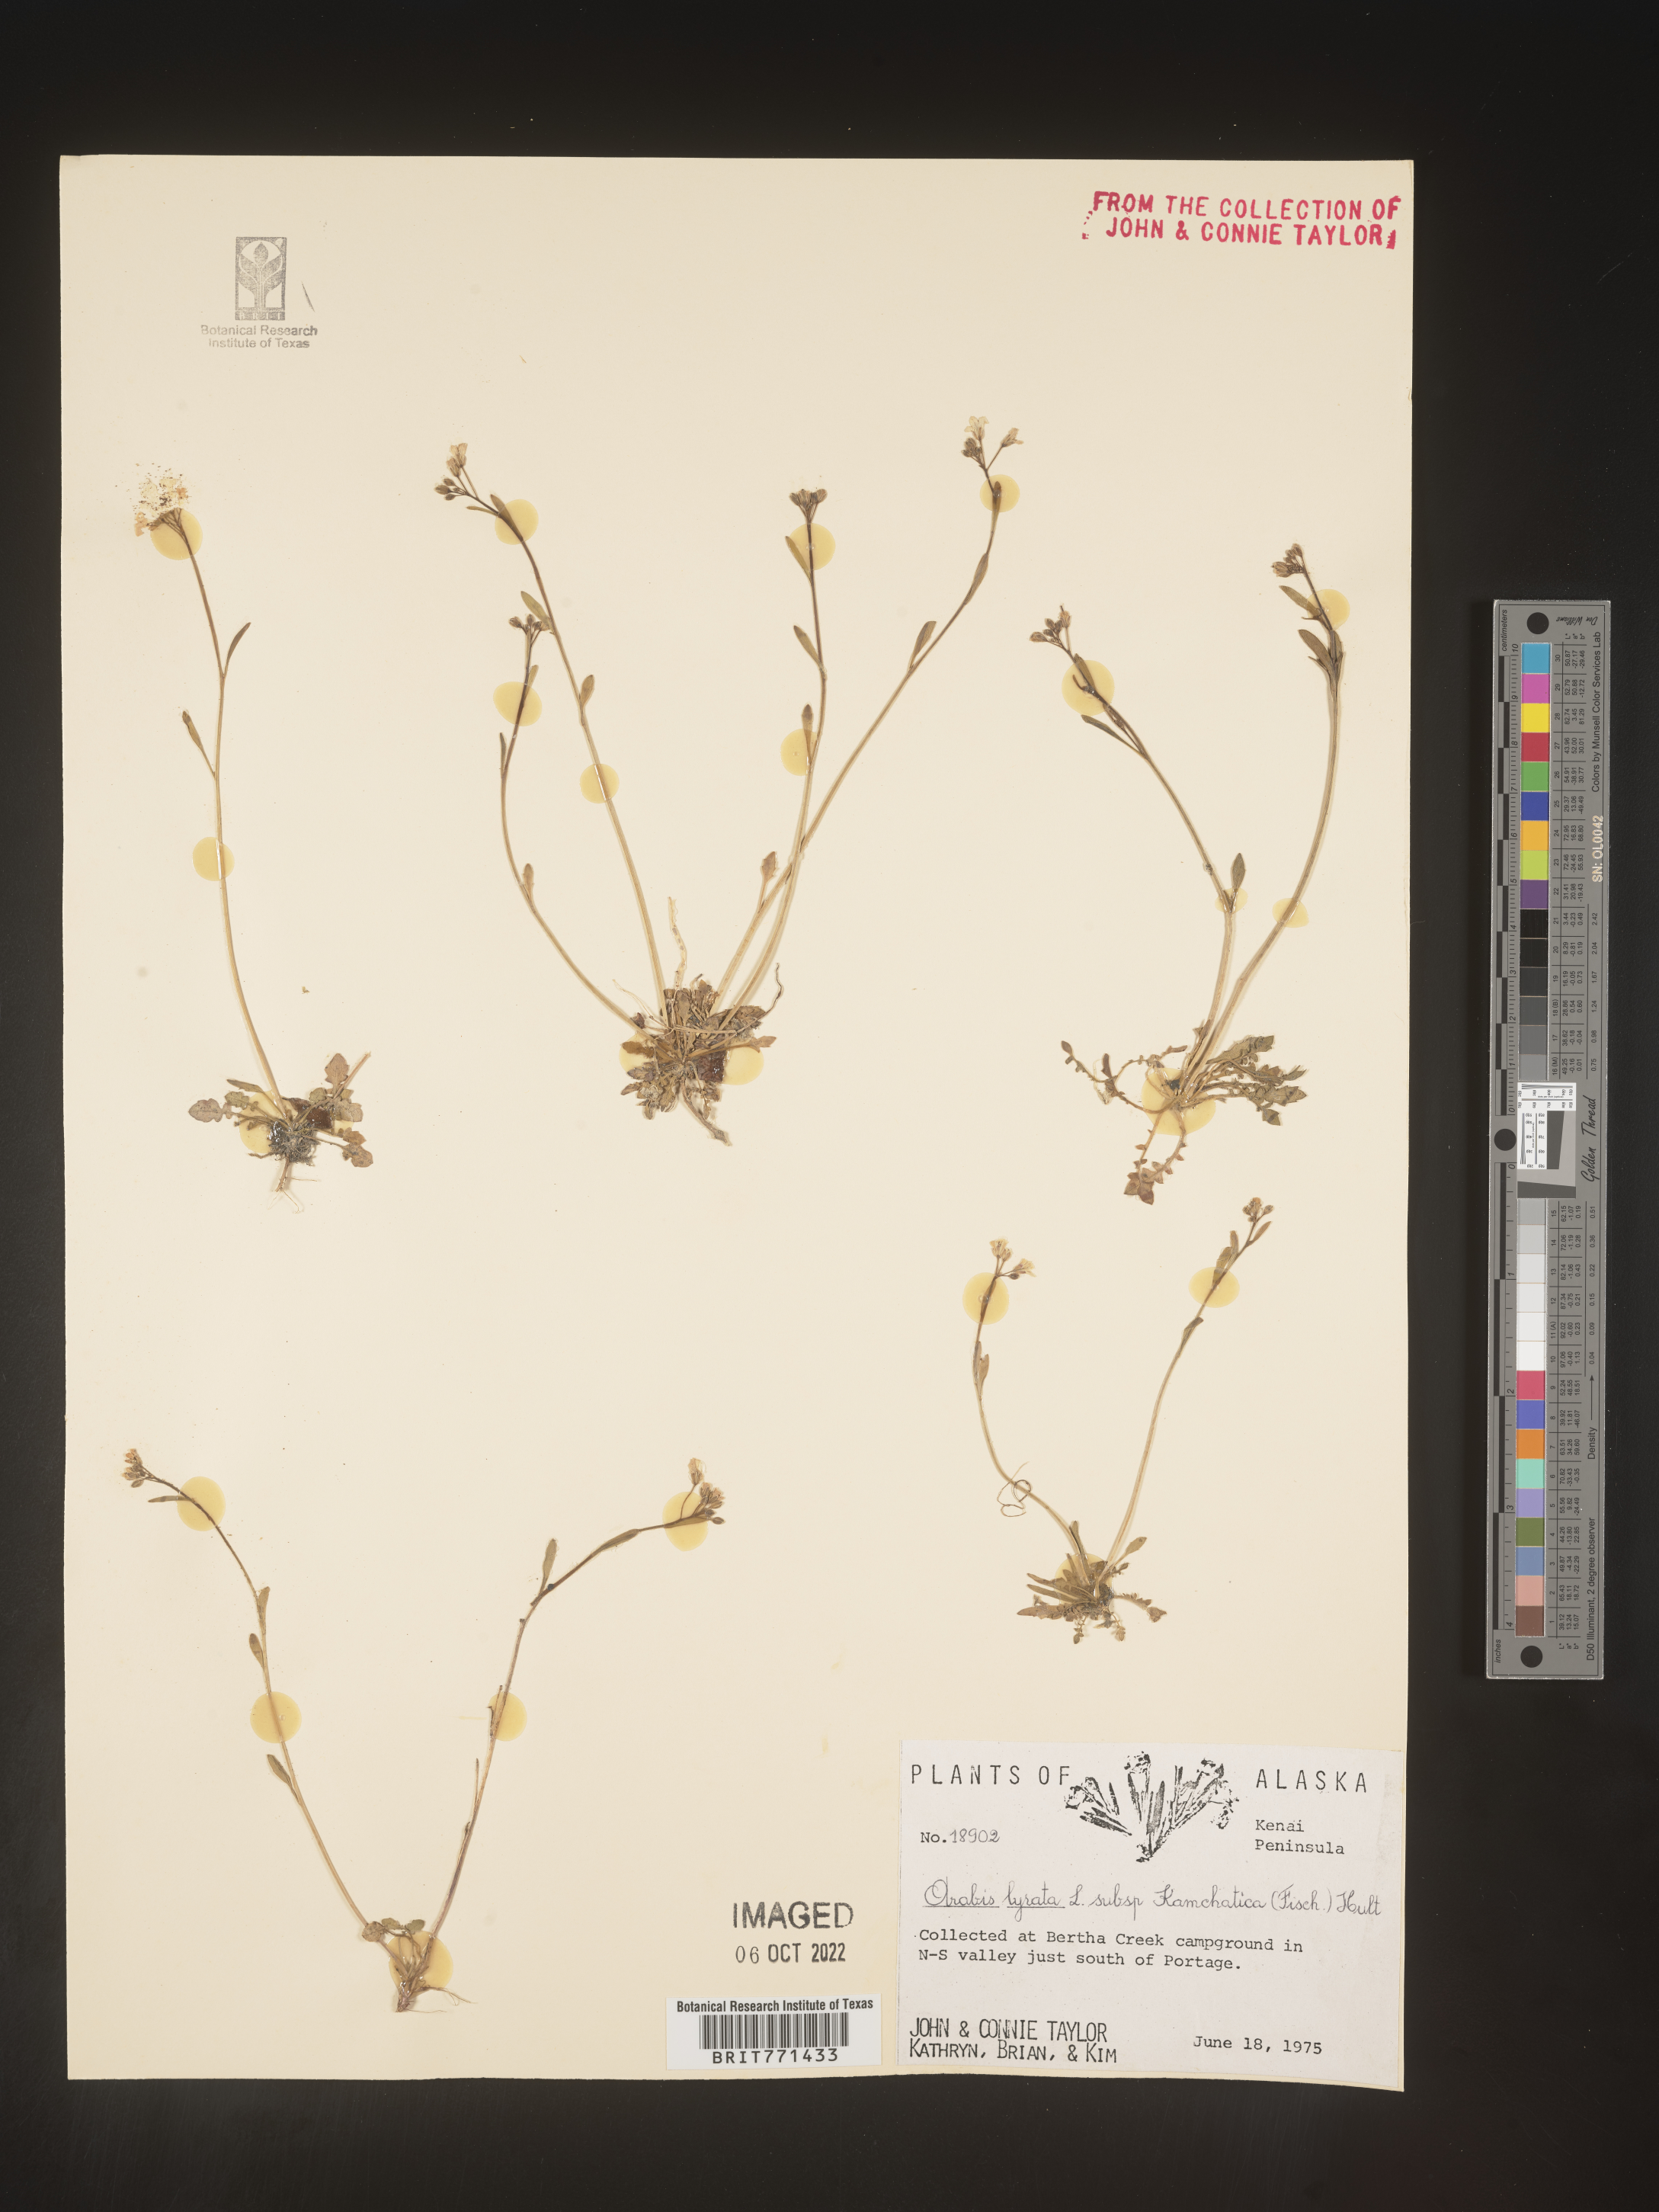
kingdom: Plantae
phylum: Tracheophyta
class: Magnoliopsida
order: Brassicales
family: Brassicaceae
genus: Arabidopsis
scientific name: Arabidopsis lyrata
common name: Lyrate rockcress
